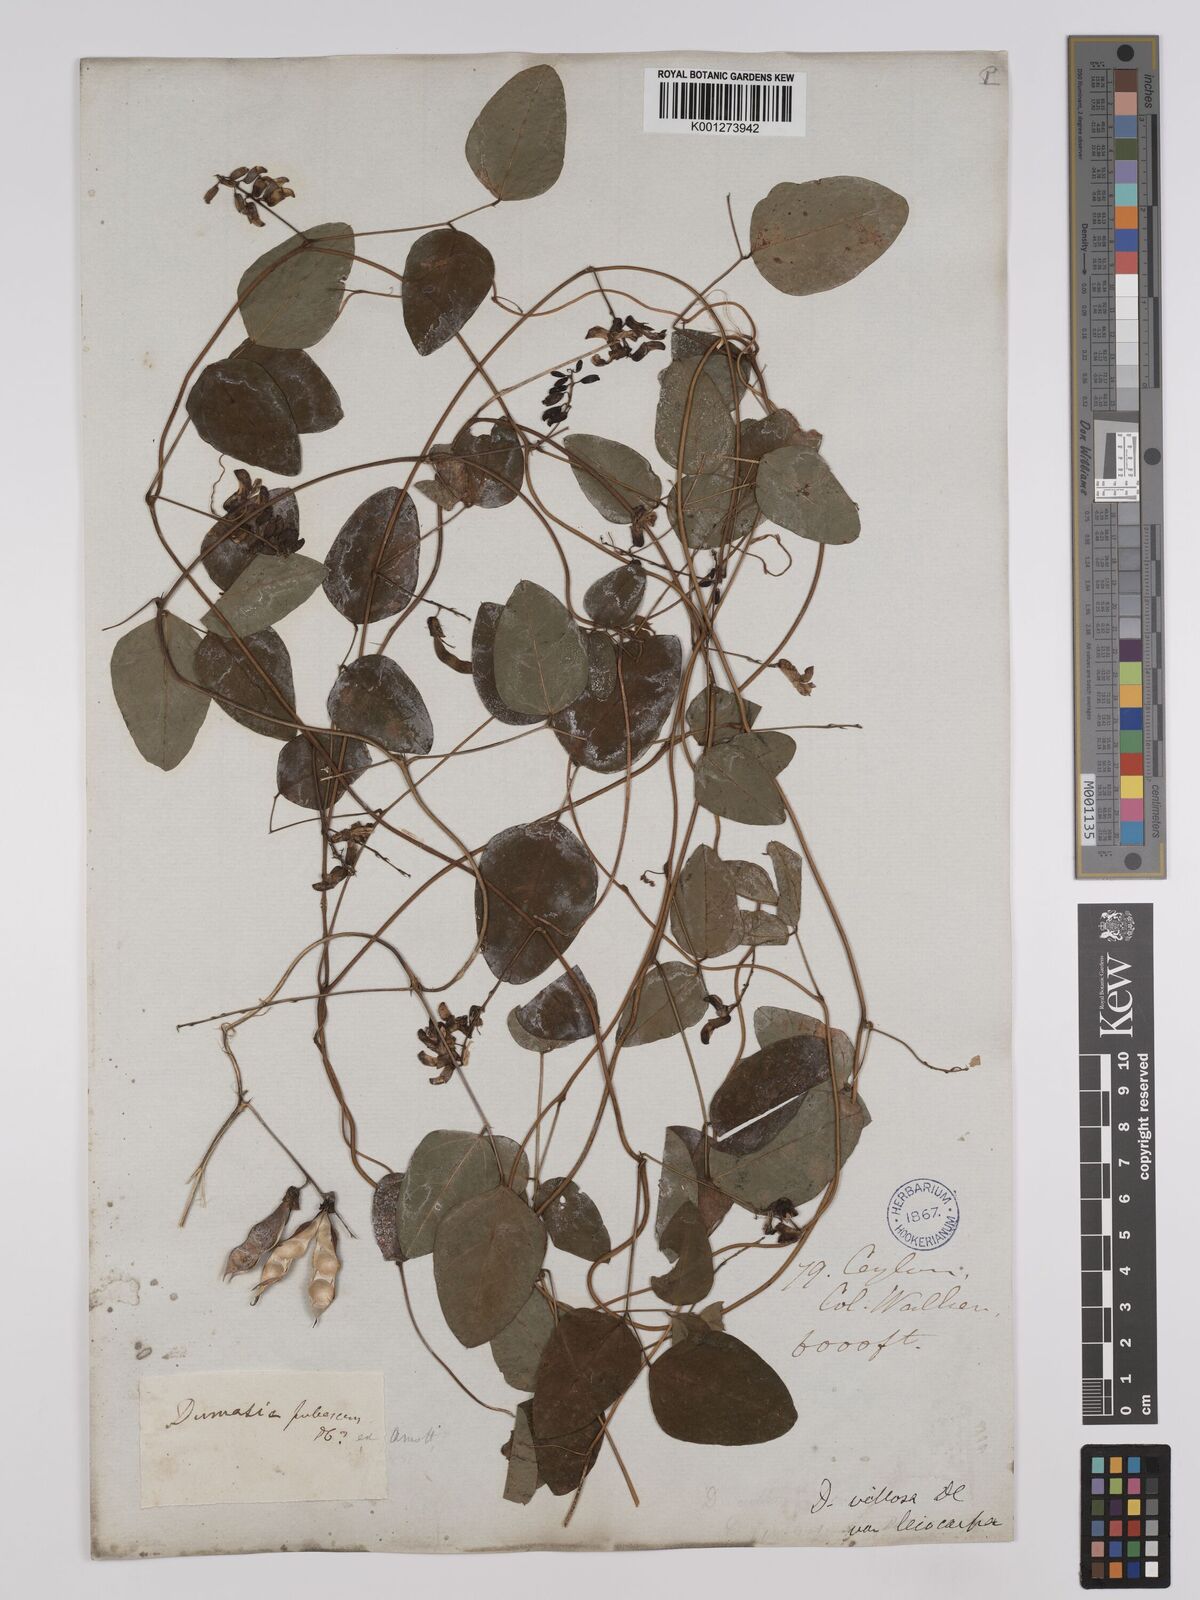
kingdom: Plantae
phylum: Tracheophyta
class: Magnoliopsida
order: Fabales
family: Fabaceae
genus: Dumasia
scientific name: Dumasia villosa
